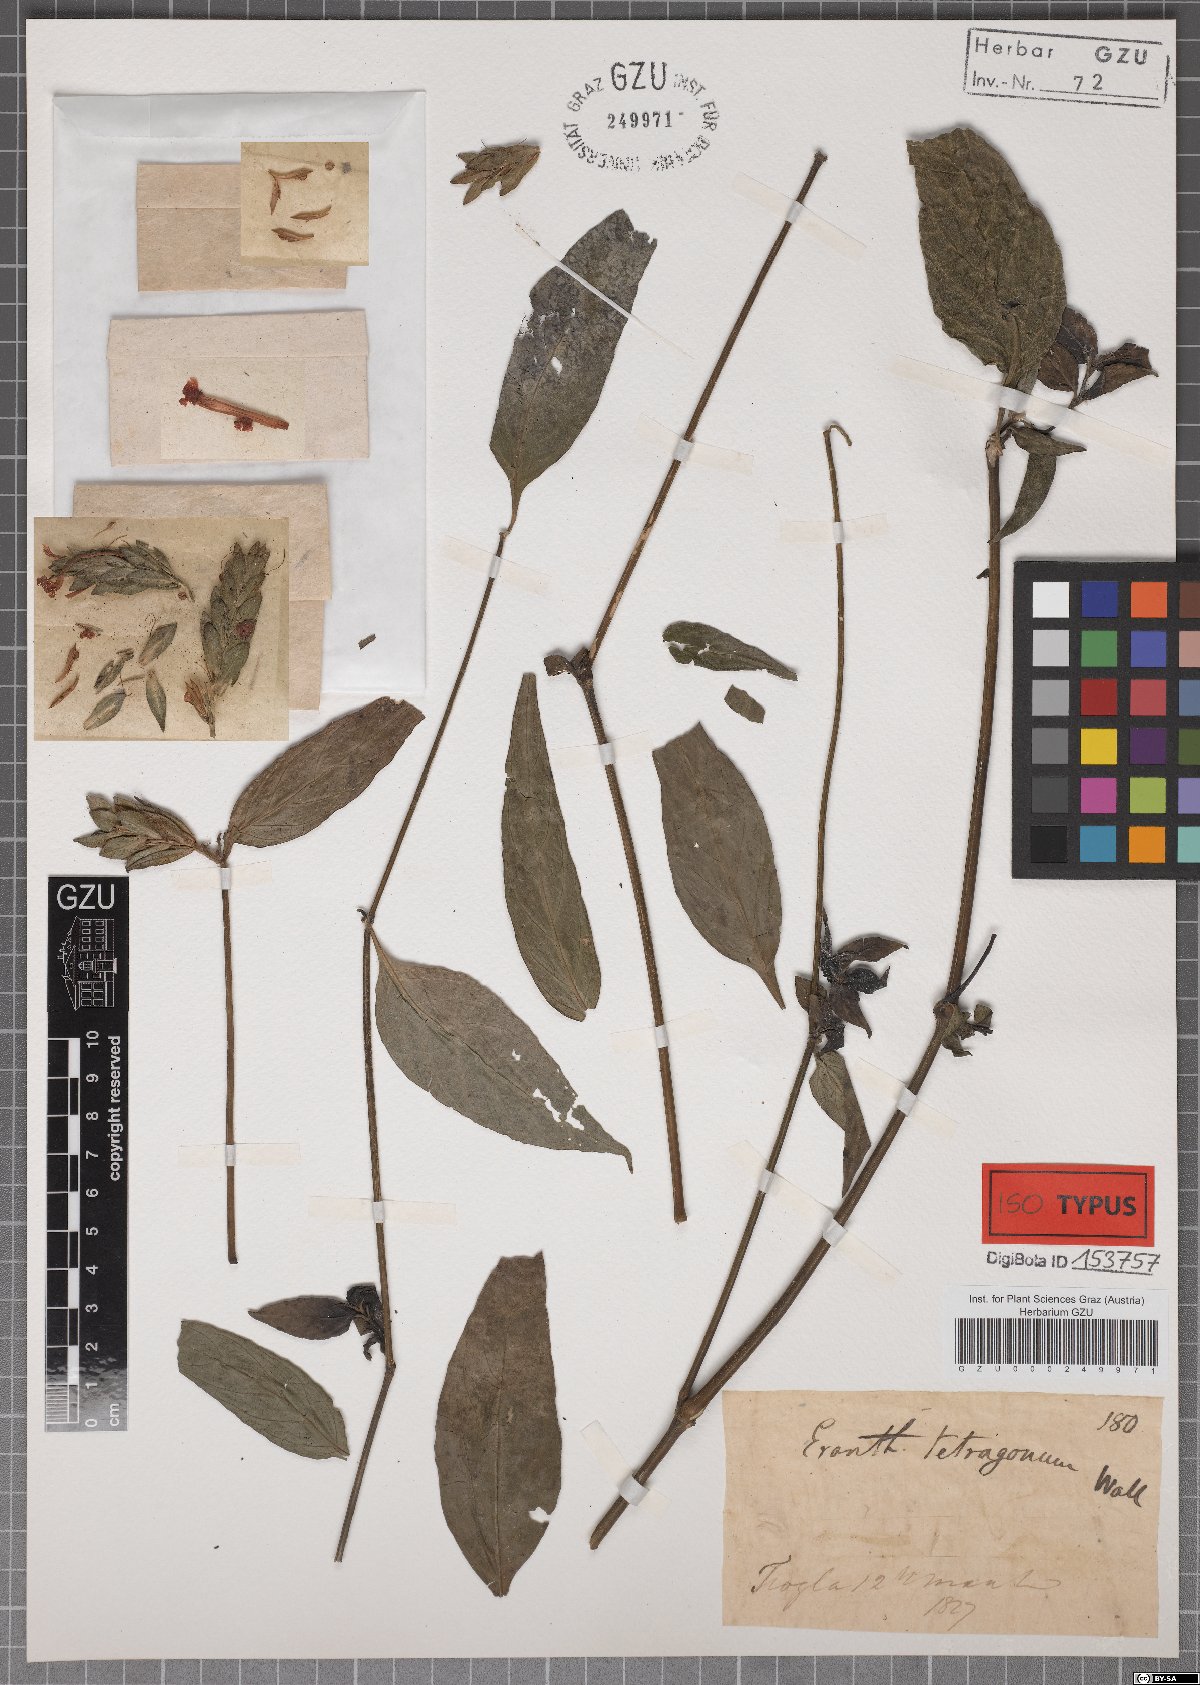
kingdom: Plantae
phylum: Tracheophyta
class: Magnoliopsida
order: Lamiales
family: Acanthaceae
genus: Eranthemum
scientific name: Eranthemum tetragonum
